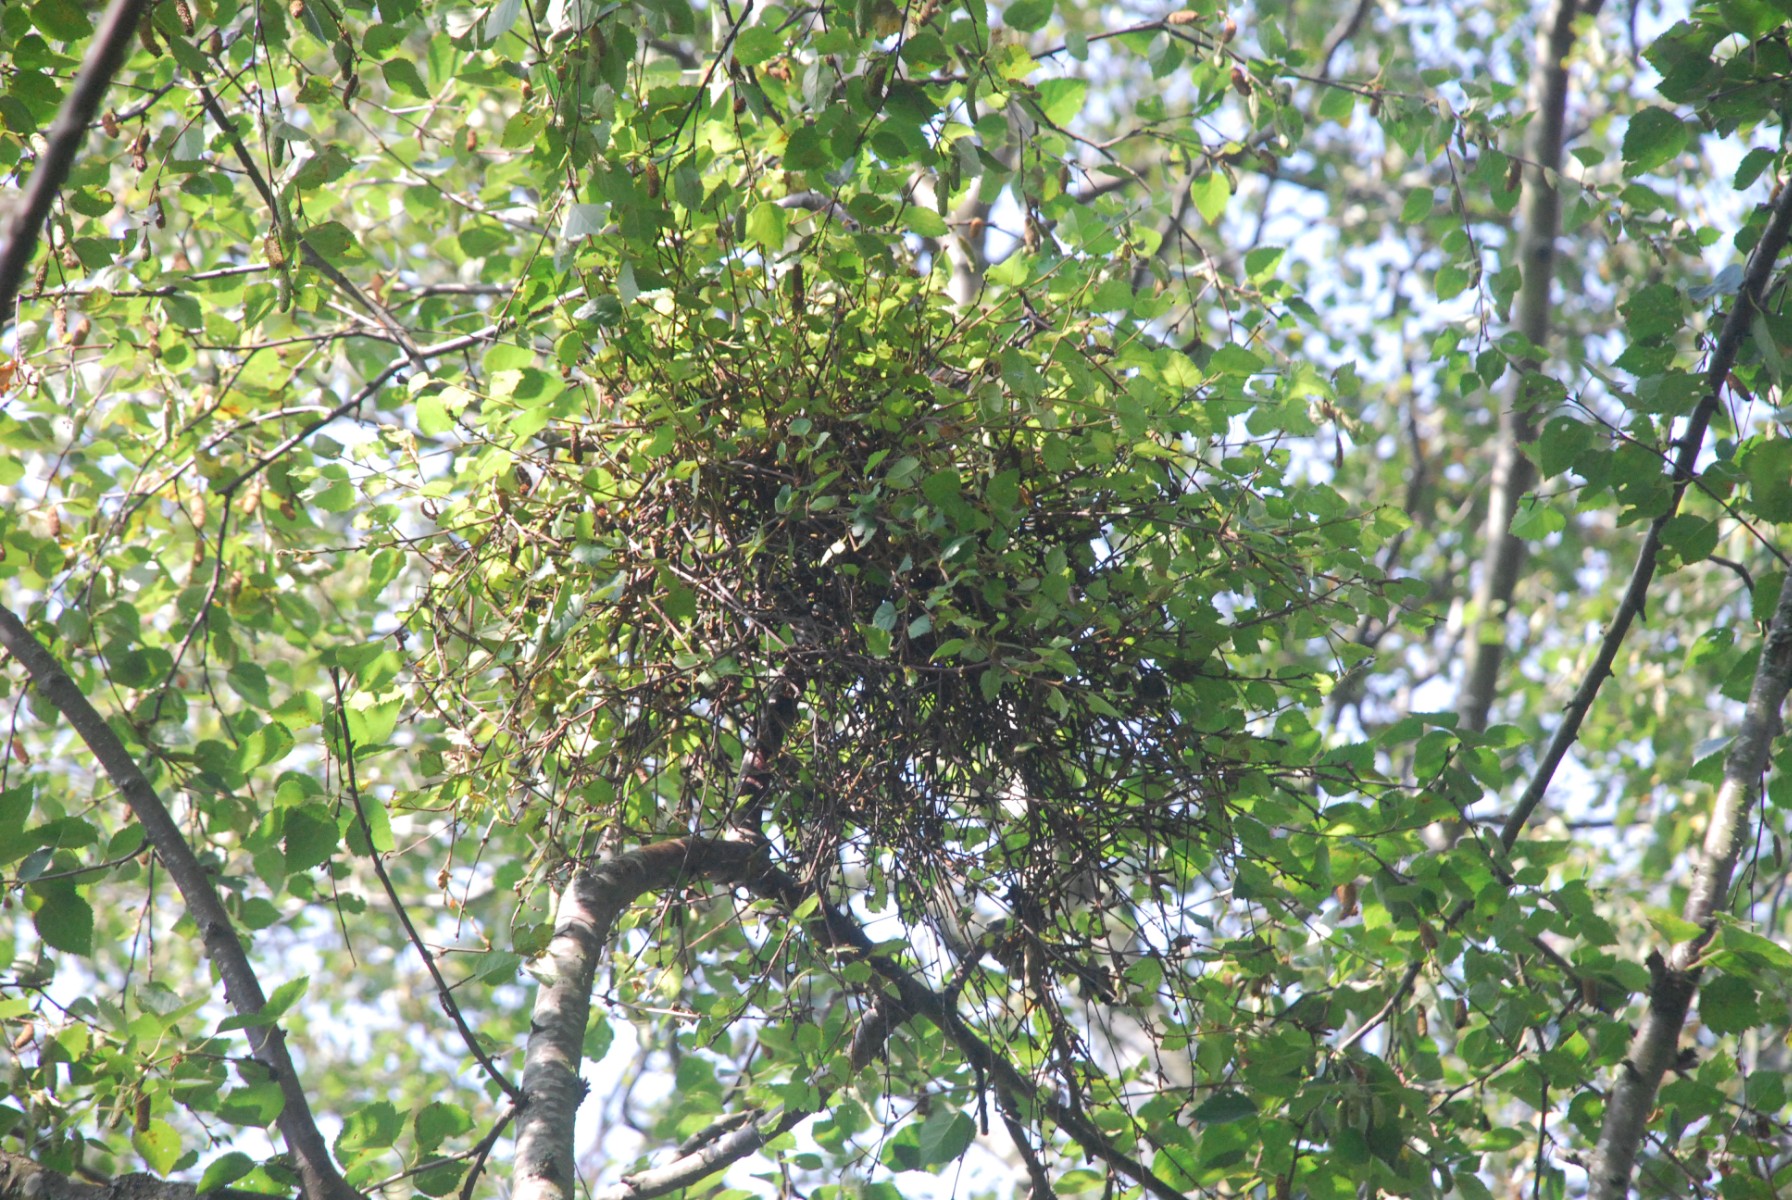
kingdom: Fungi
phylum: Ascomycota
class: Taphrinomycetes
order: Taphrinales
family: Taphrinaceae
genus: Taphrina
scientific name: Taphrina betulina
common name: hekse-sækdug
